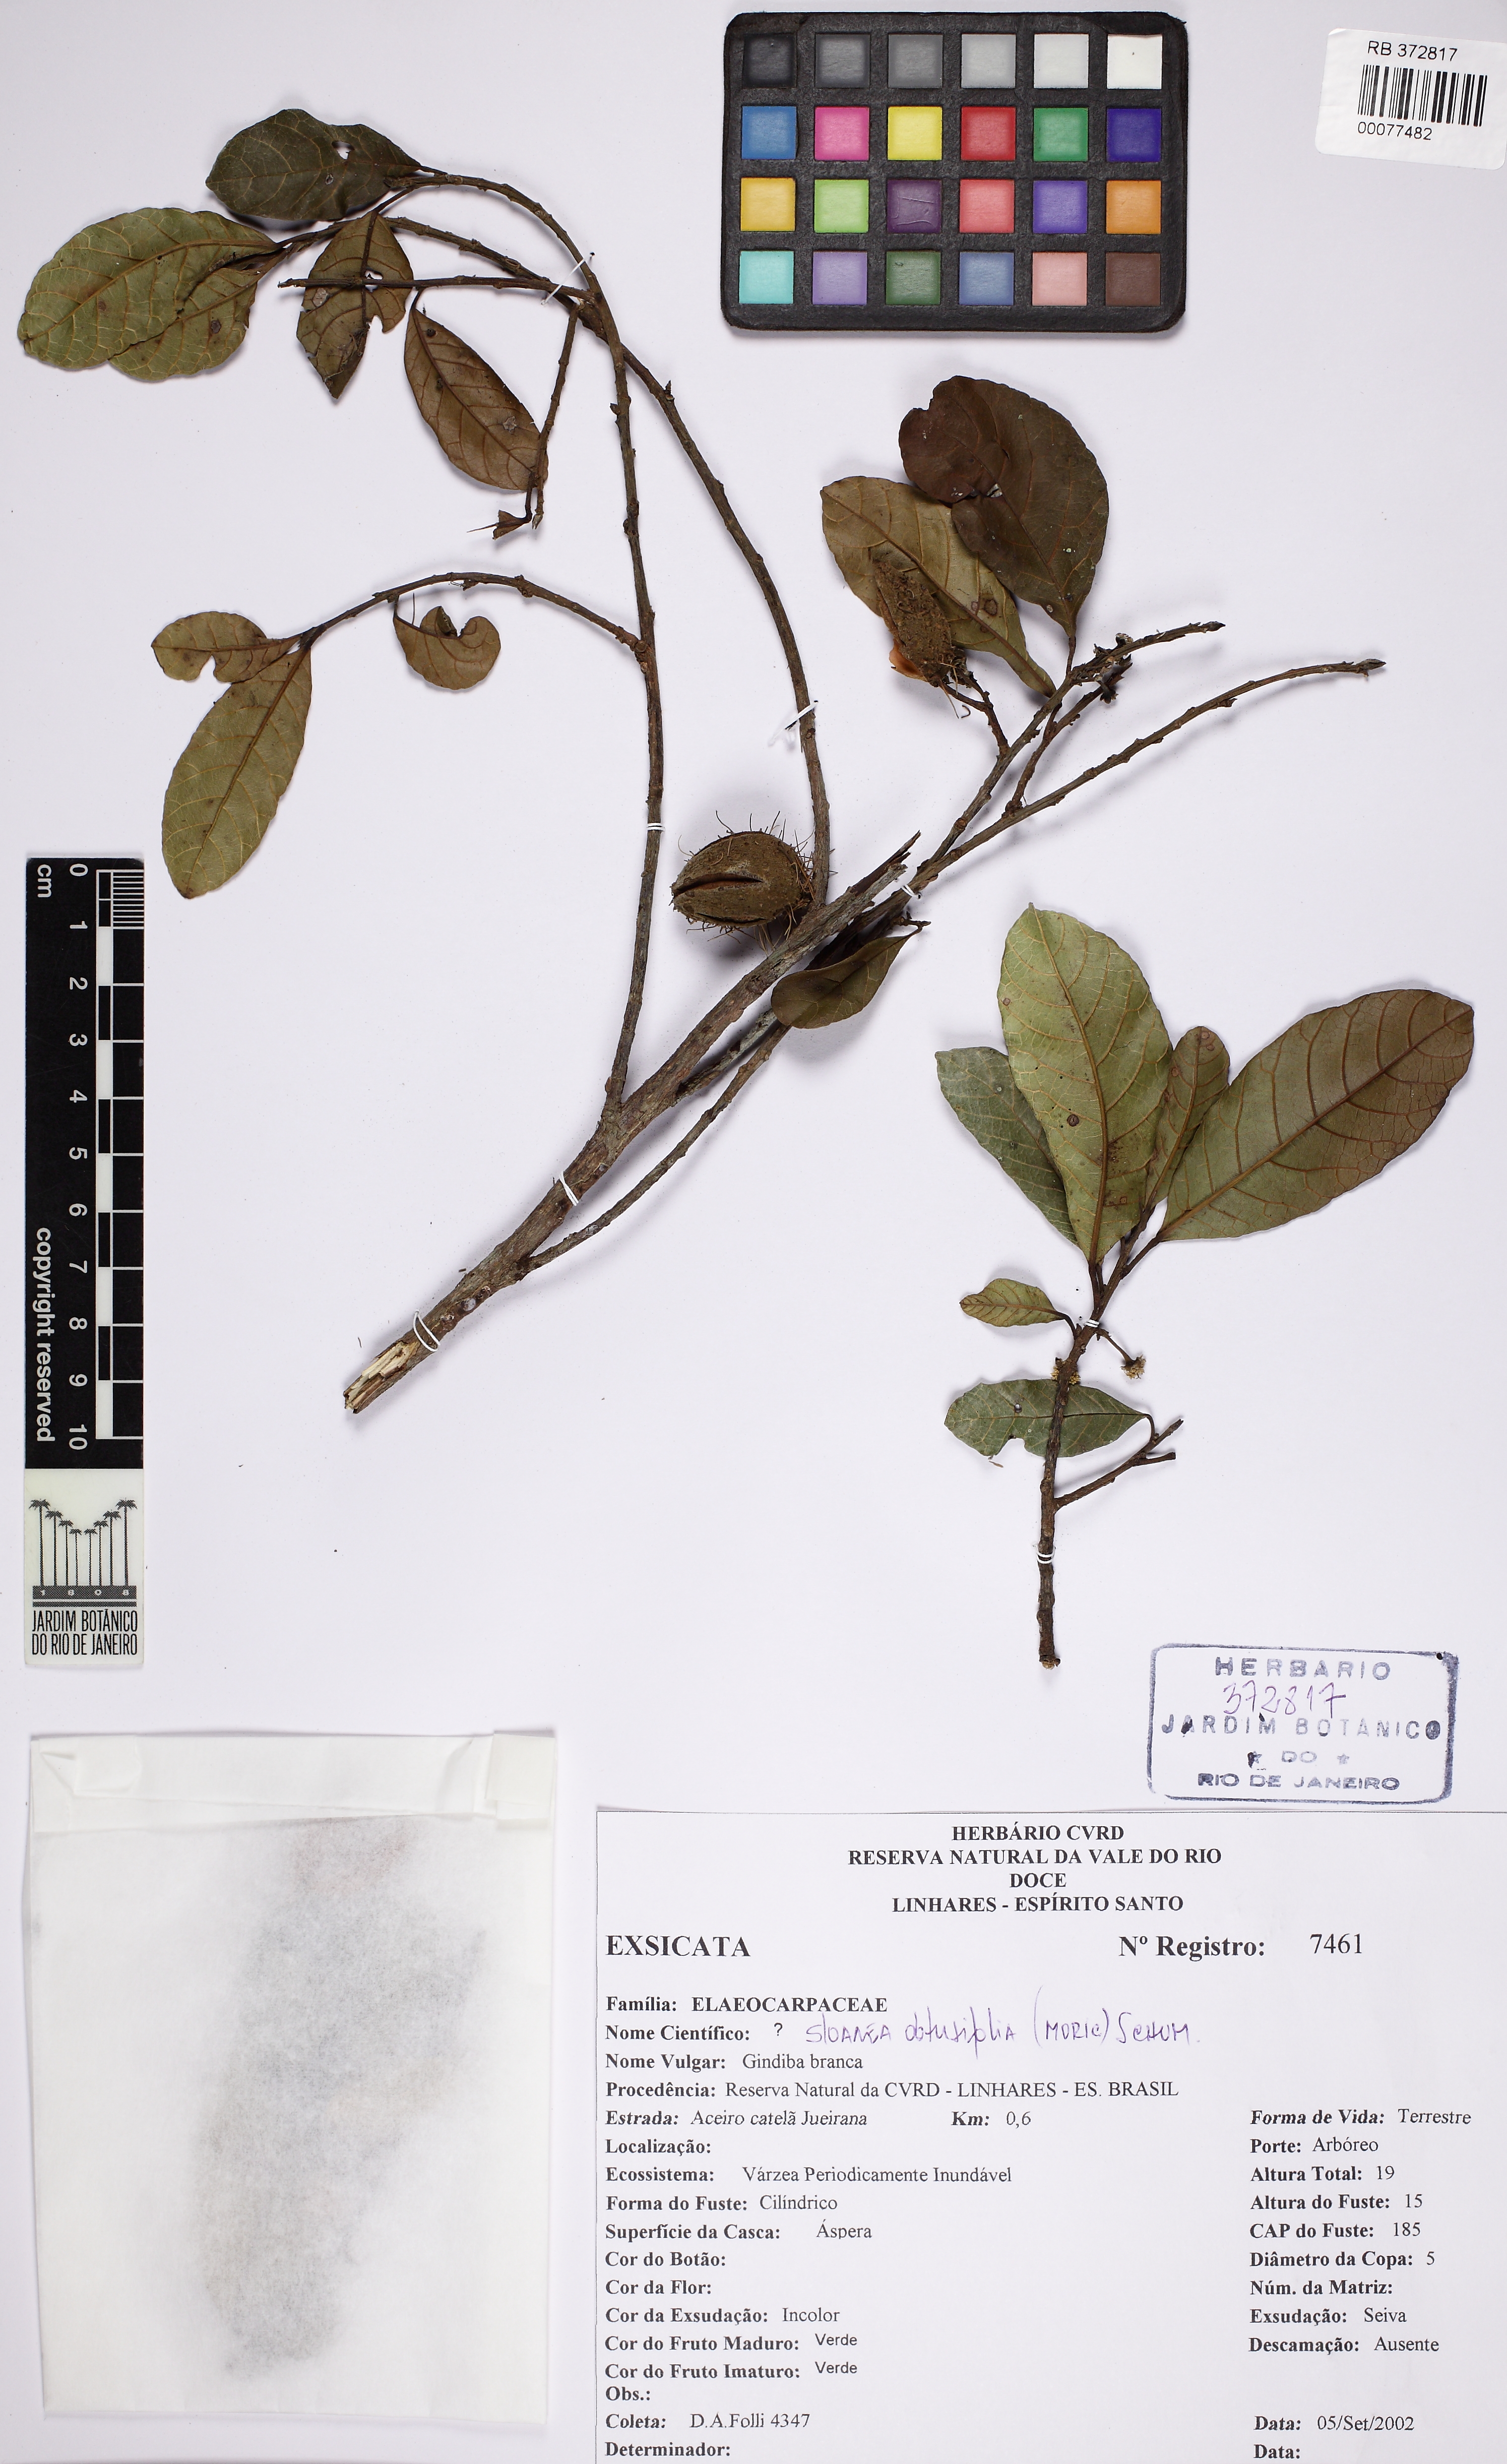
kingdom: Plantae
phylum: Tracheophyta
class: Magnoliopsida
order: Oxalidales
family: Elaeocarpaceae
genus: Sloanea
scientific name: Sloanea obtusifolia
